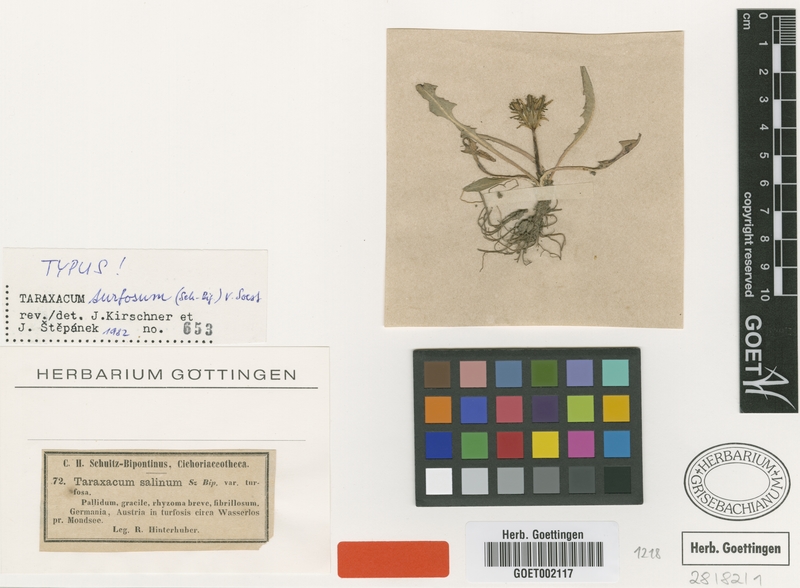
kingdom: Plantae
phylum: Tracheophyta
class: Magnoliopsida
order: Asterales
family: Asteraceae
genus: Taraxacum
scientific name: Taraxacum turfosum
